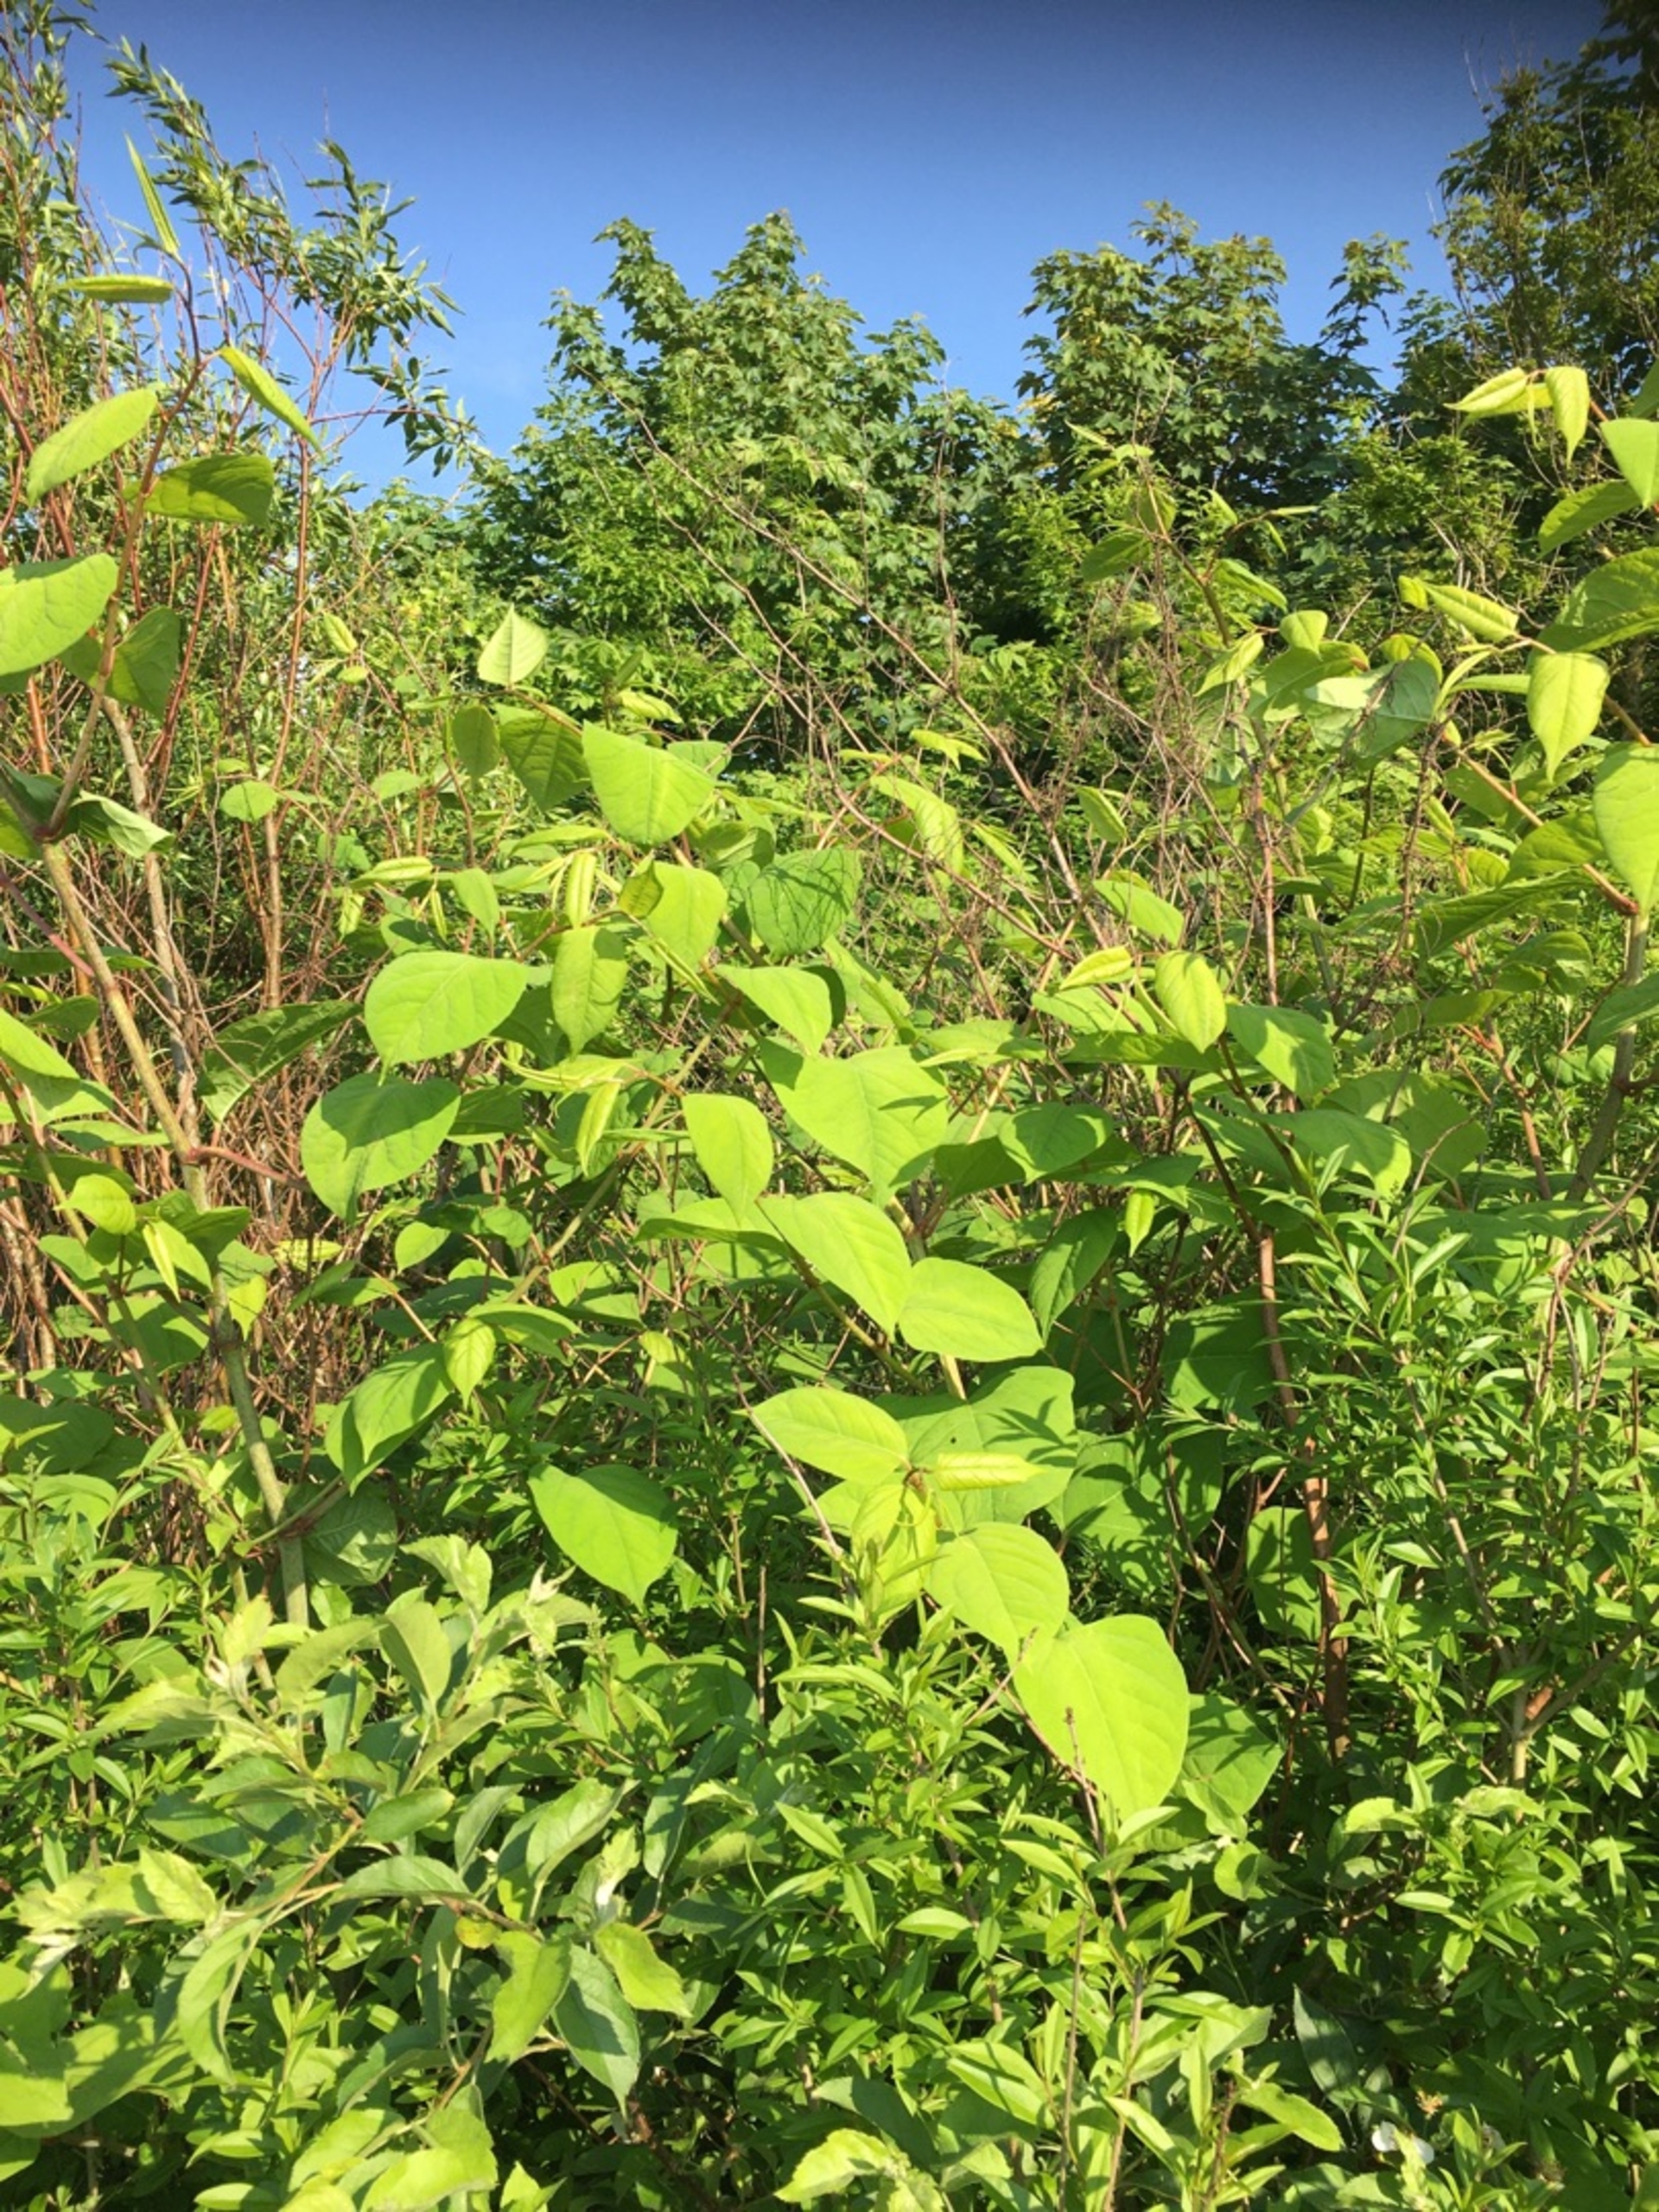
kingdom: Plantae
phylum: Tracheophyta
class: Magnoliopsida
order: Caryophyllales
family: Polygonaceae
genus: Reynoutria
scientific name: Reynoutria japonica
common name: Japan-pileurt
